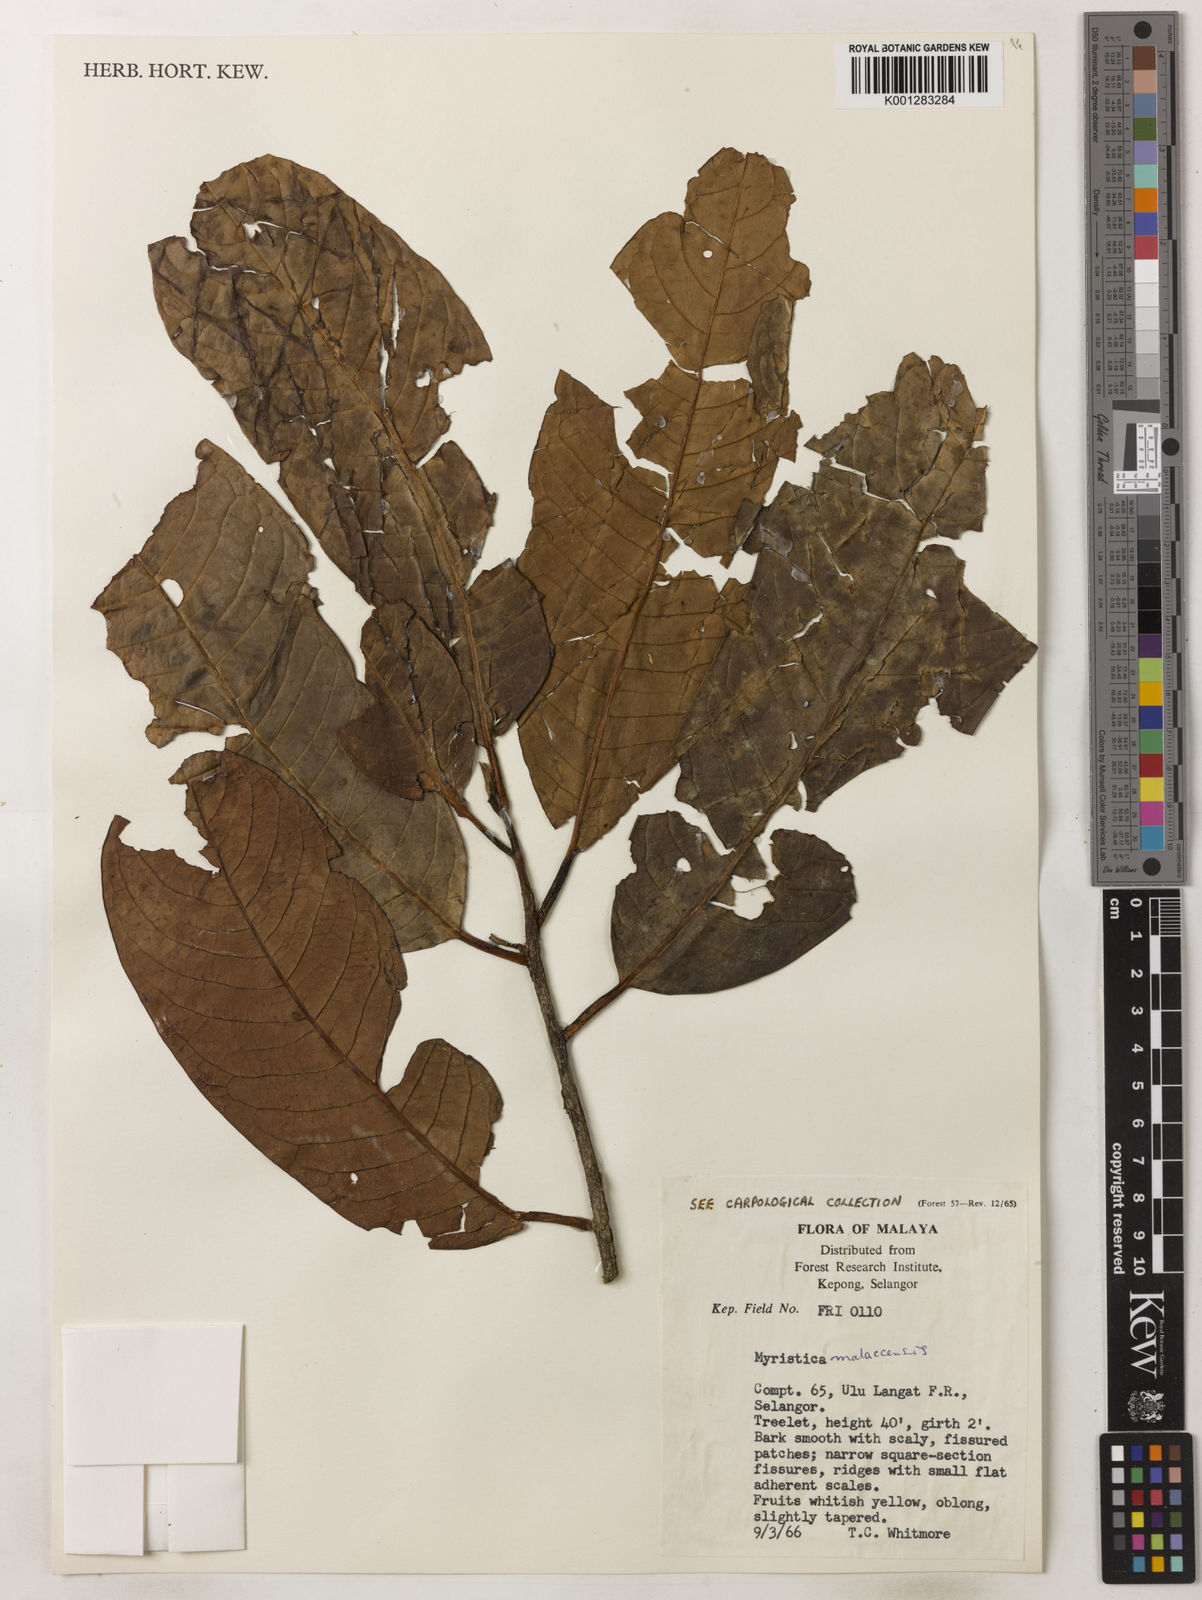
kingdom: Plantae
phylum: Tracheophyta
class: Magnoliopsida
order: Magnoliales
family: Myristicaceae
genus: Myristica
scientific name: Myristica malaccensis
